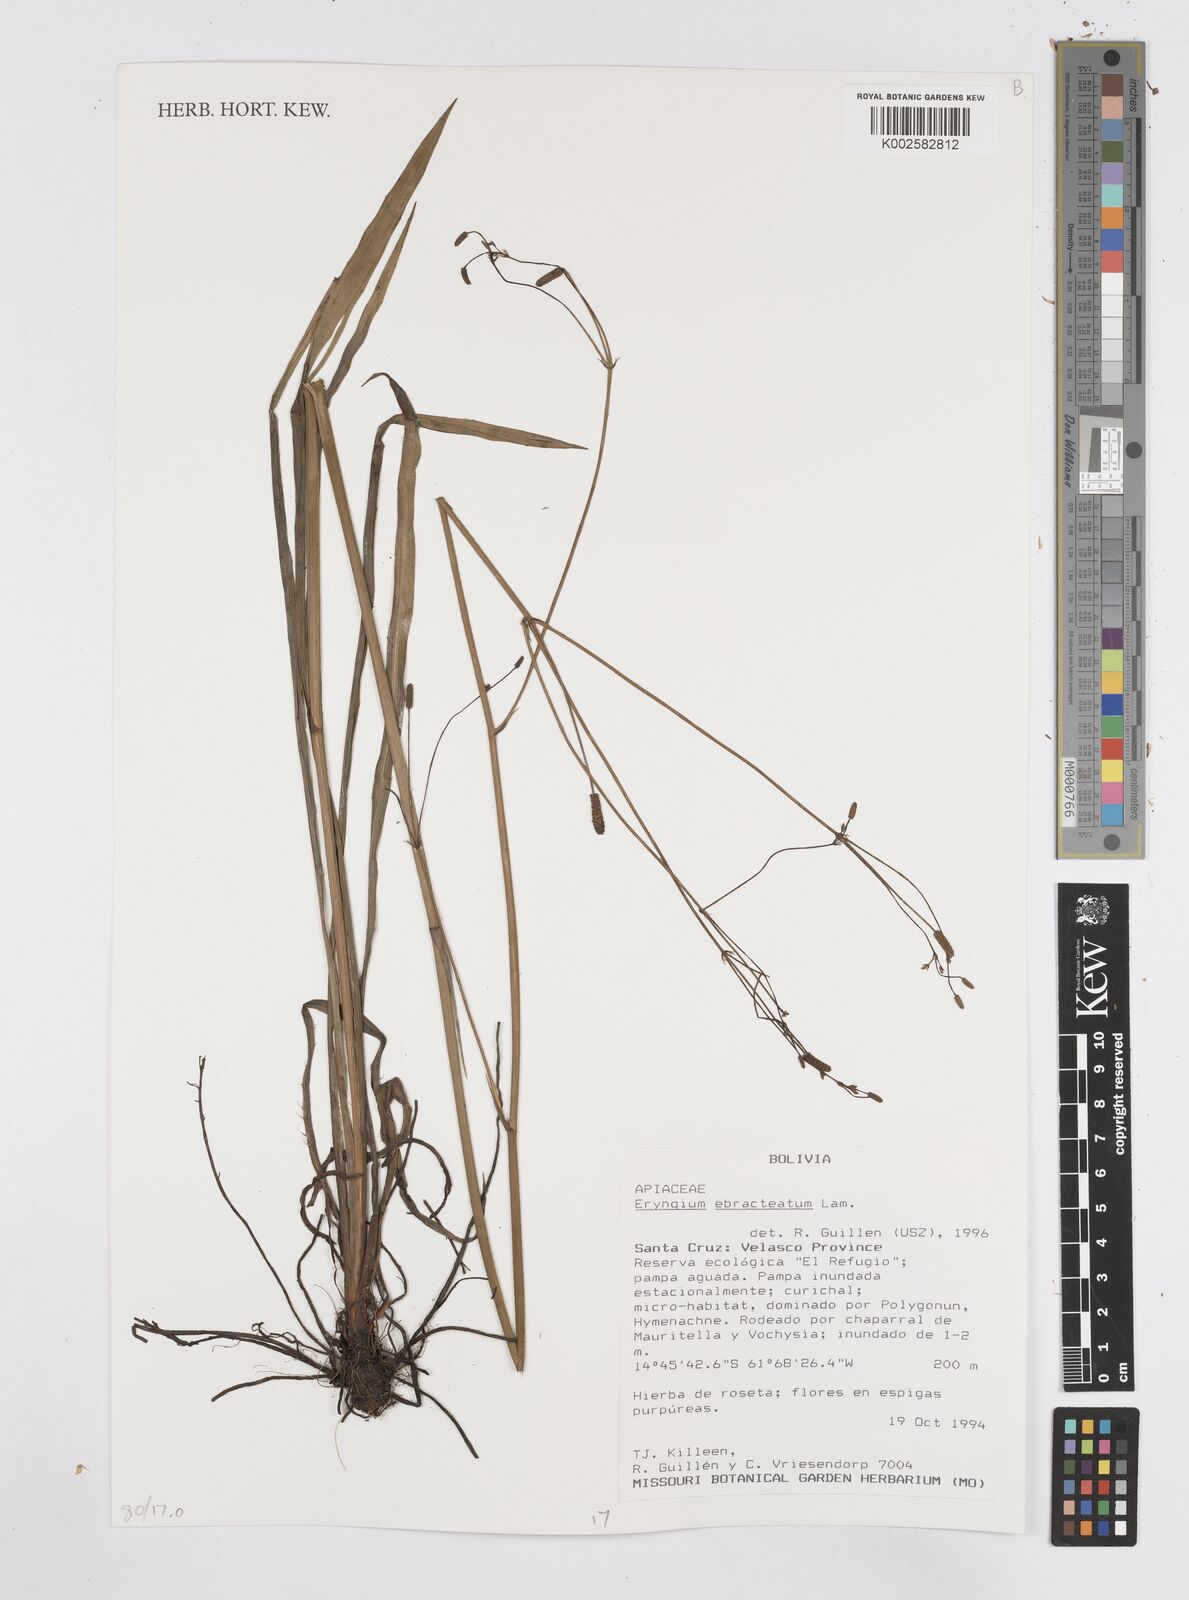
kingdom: Plantae
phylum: Tracheophyta
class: Magnoliopsida
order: Apiales
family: Apiaceae
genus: Eryngium
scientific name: Eryngium cymosum
